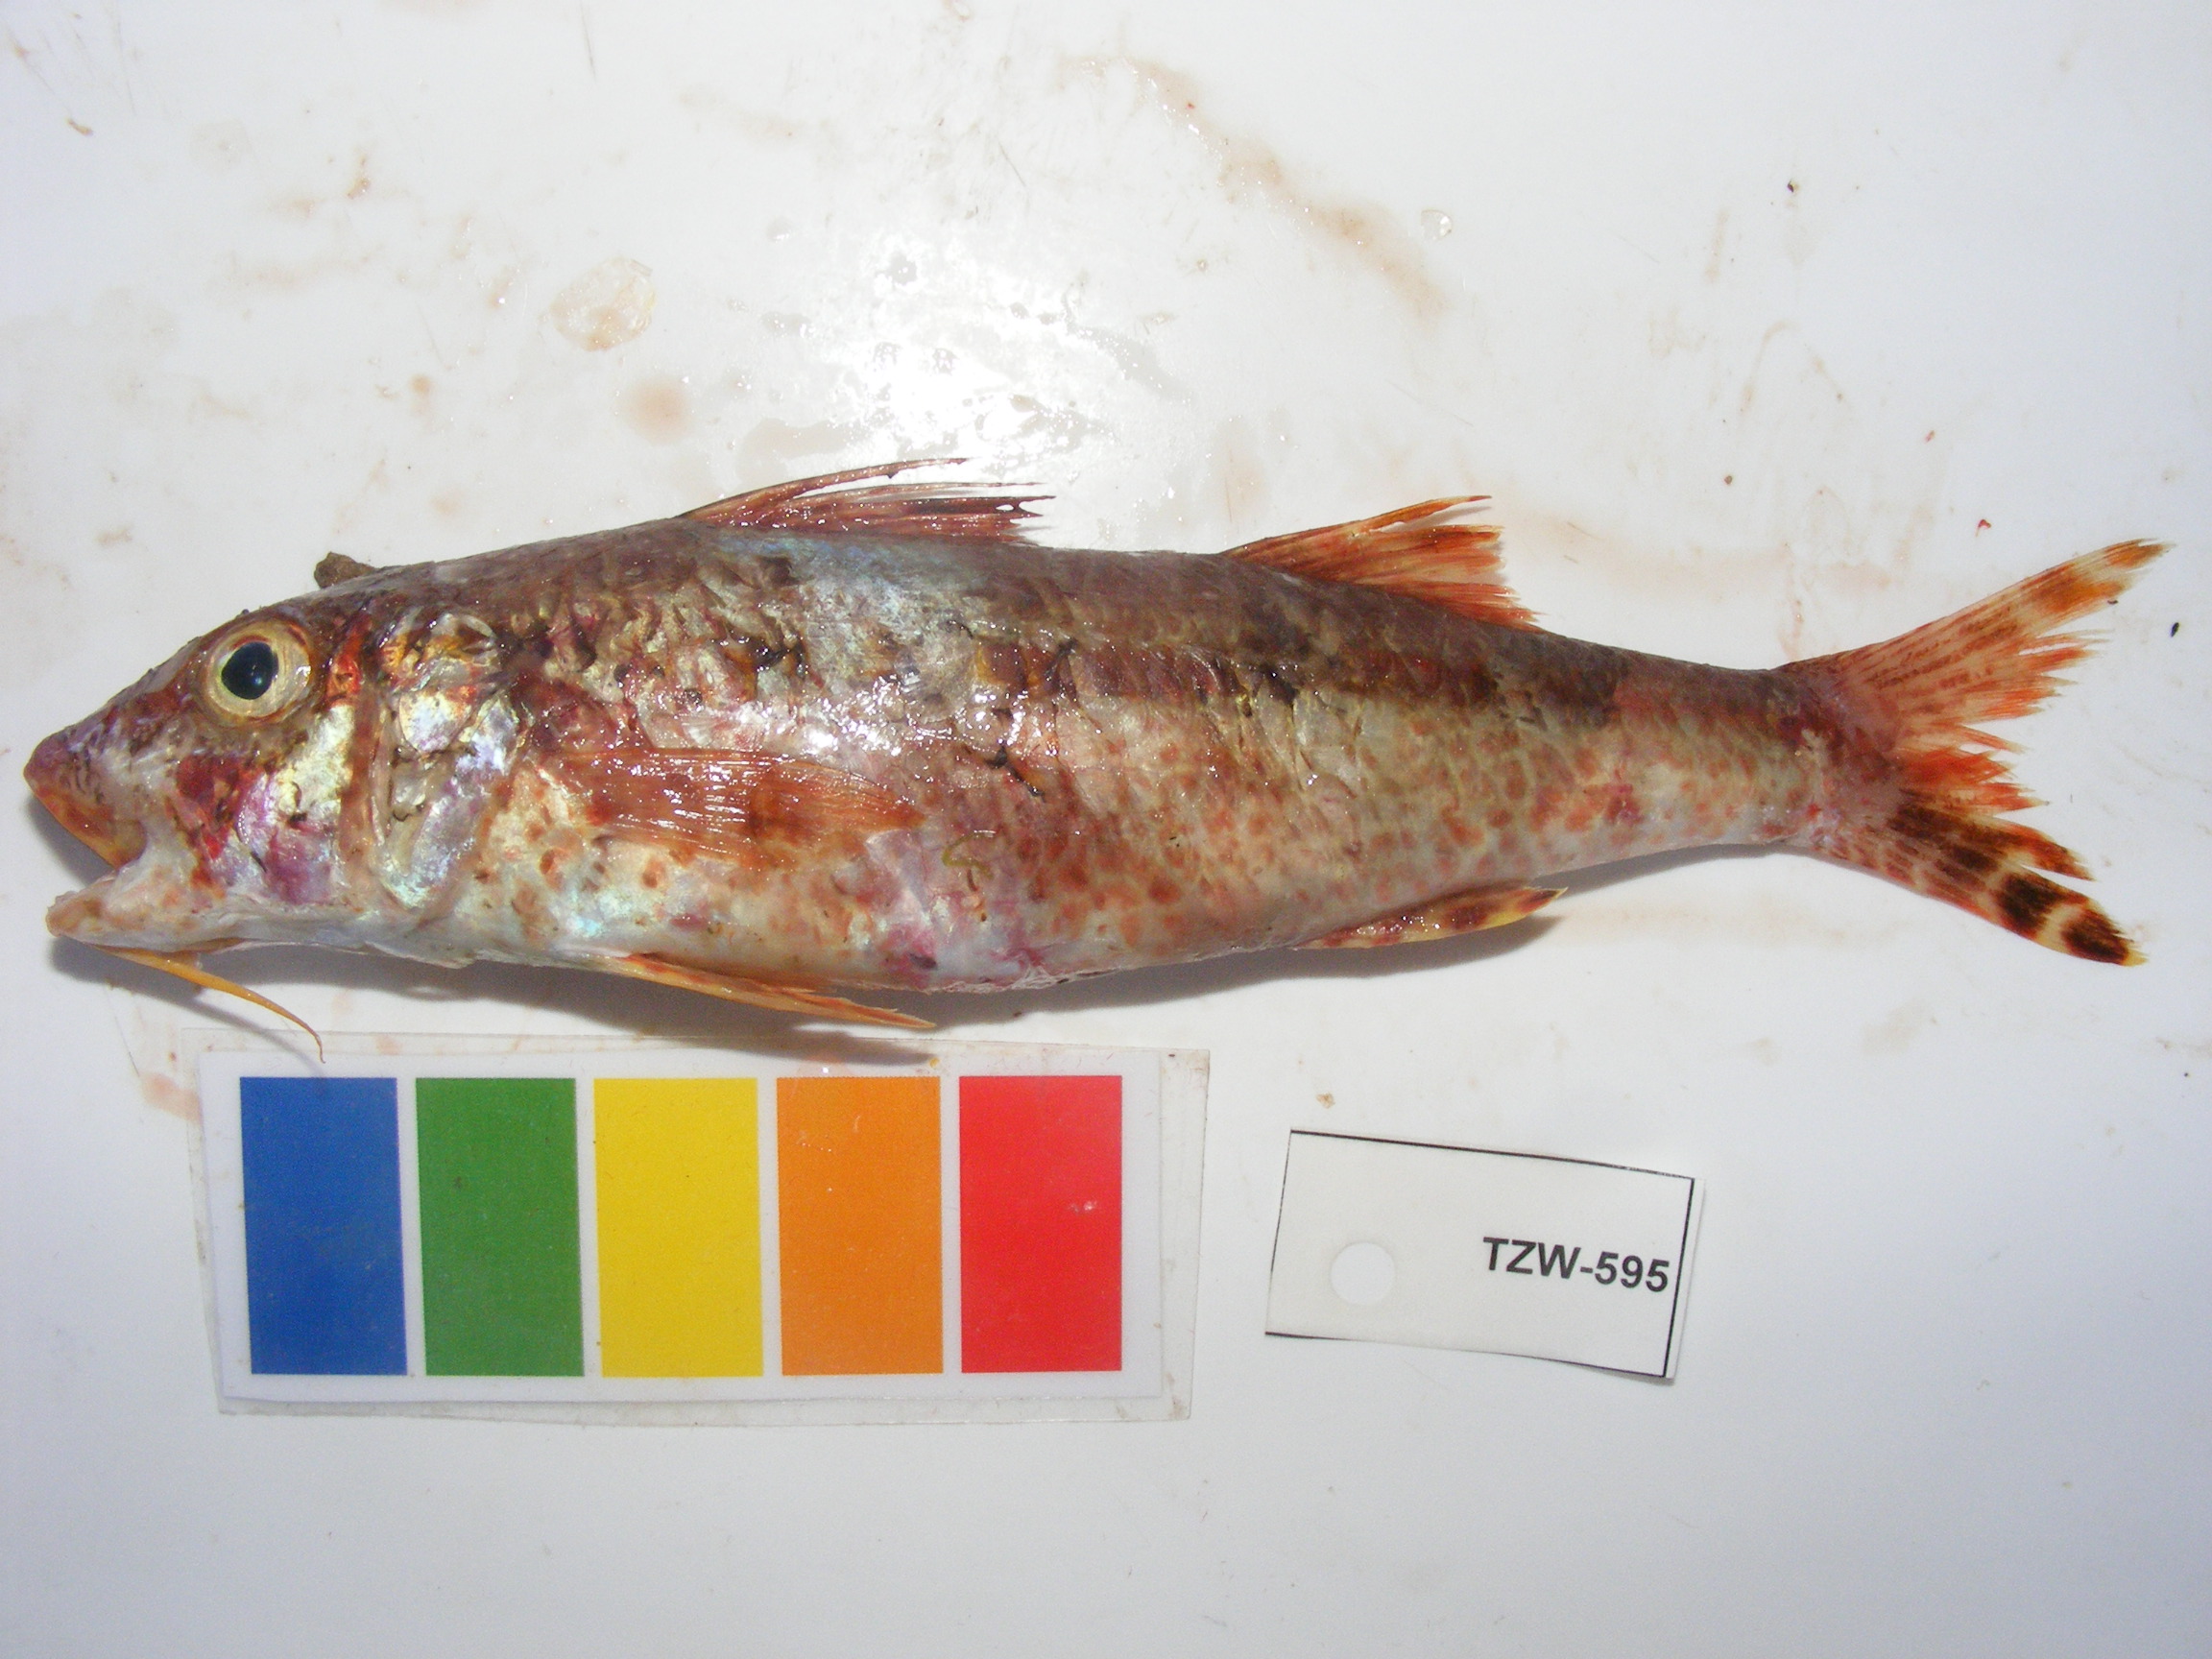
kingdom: Animalia
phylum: Chordata
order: Perciformes
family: Mullidae
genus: Upeneus
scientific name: Upeneus tragula
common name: Freckled goatfish
